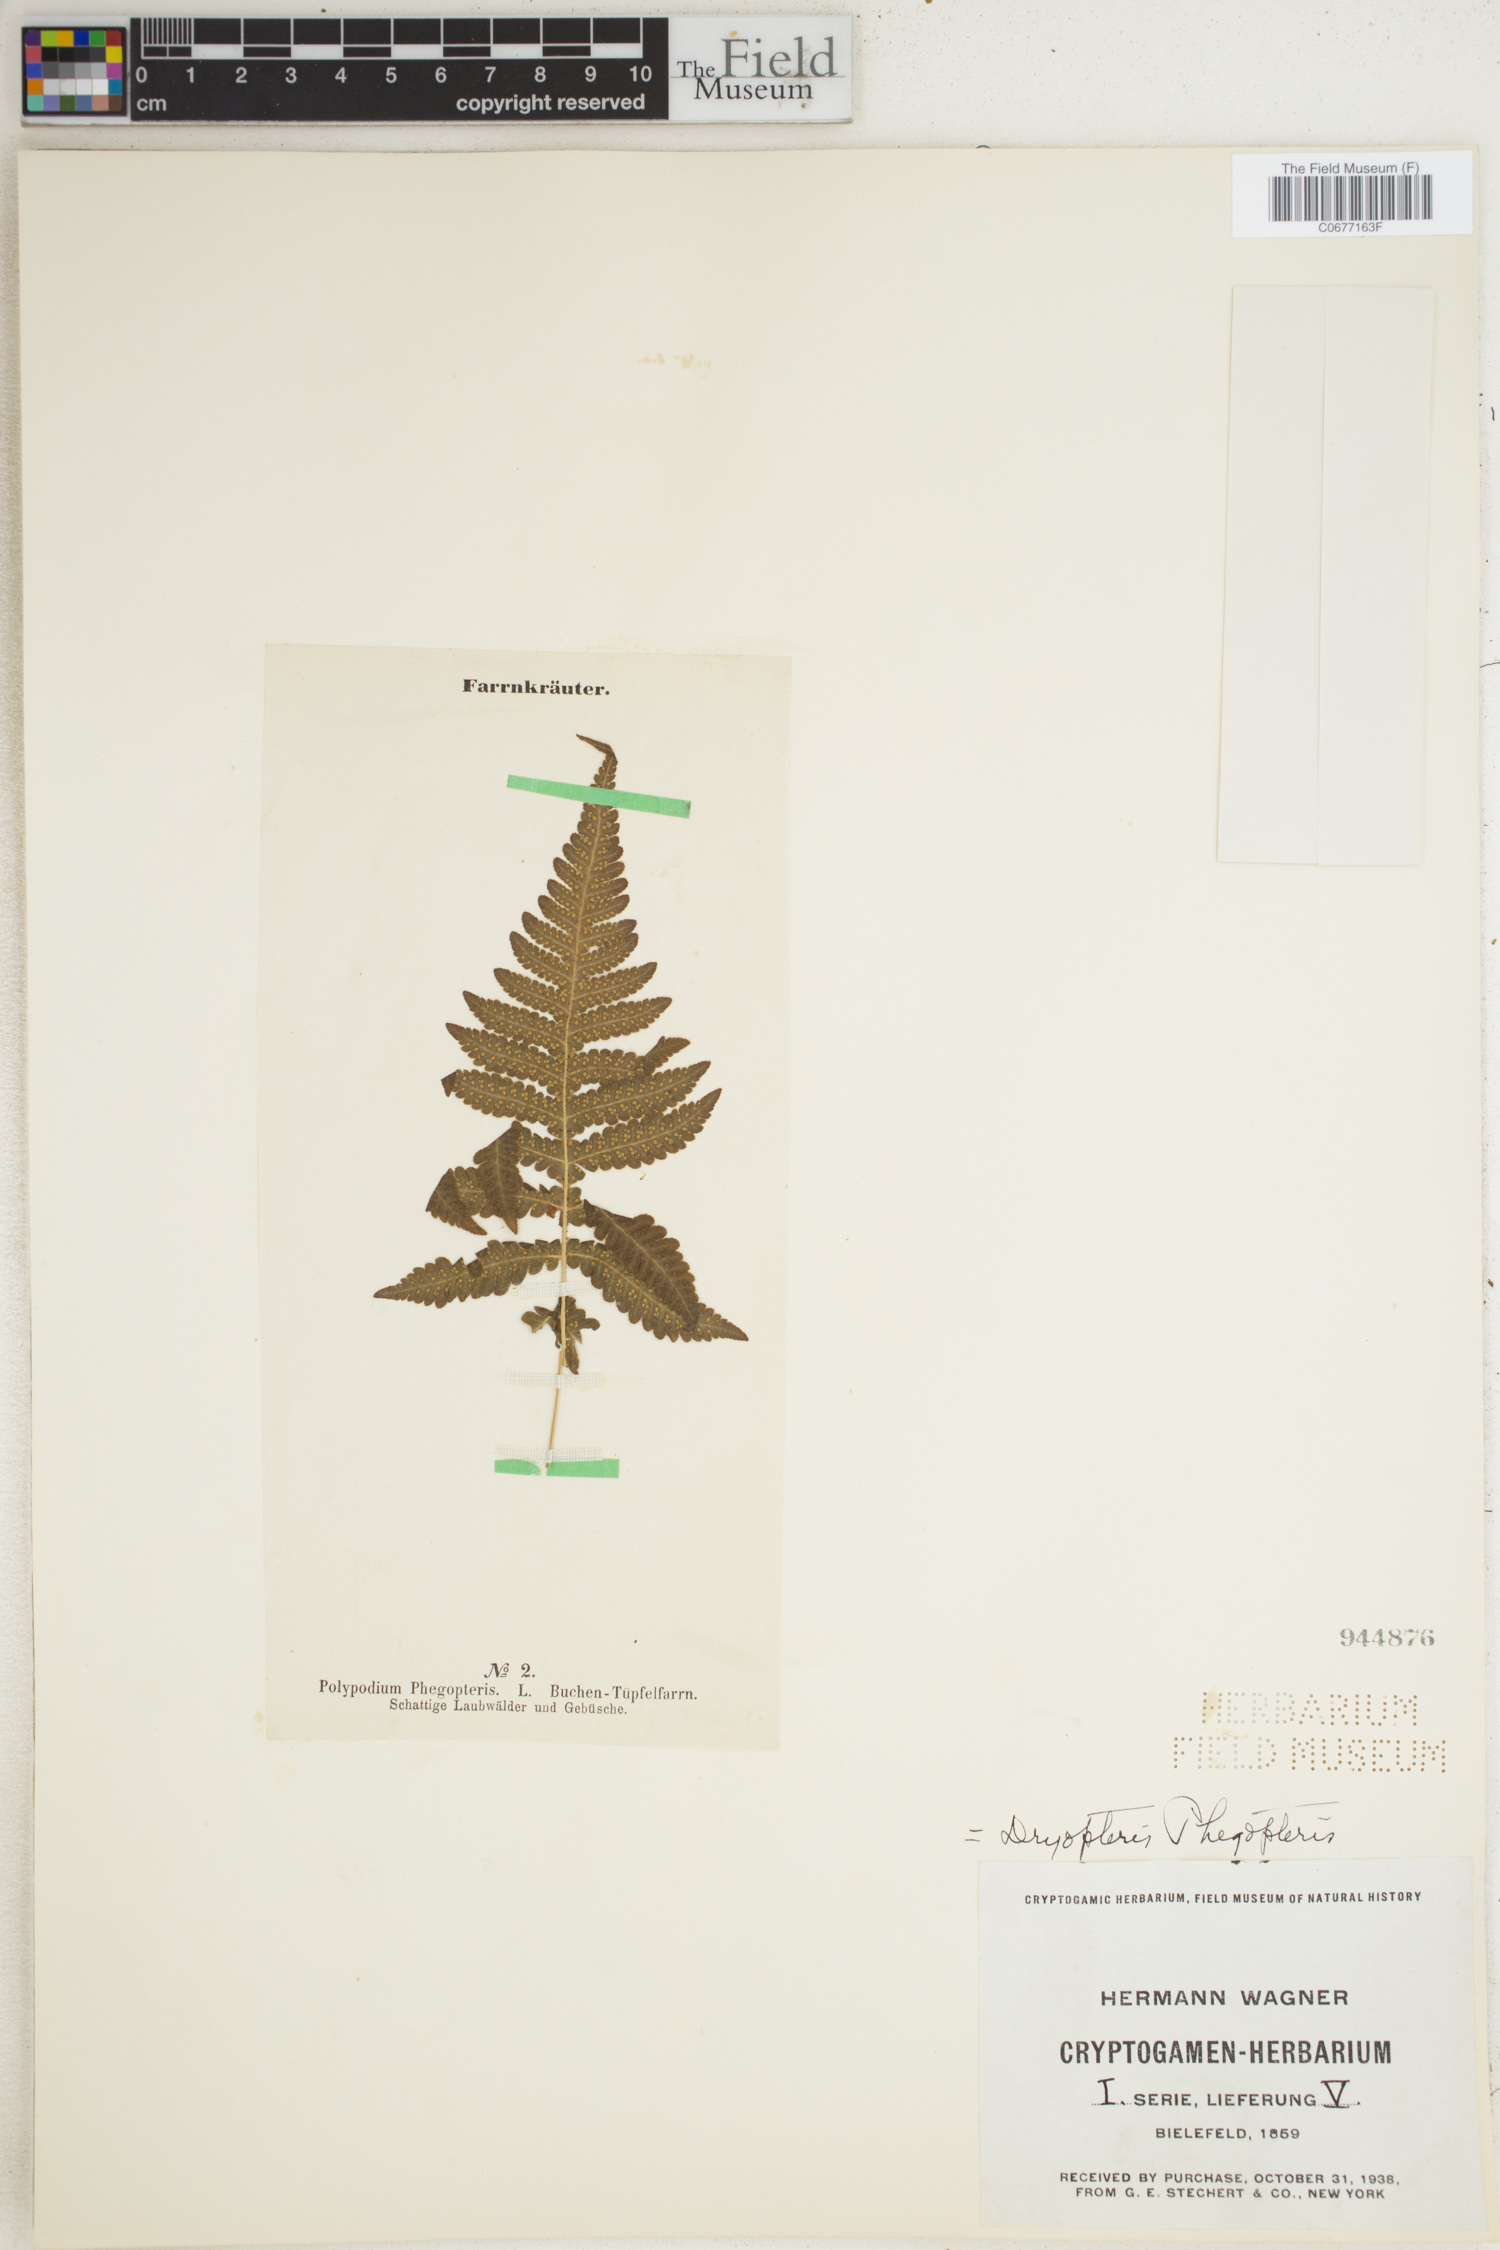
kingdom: Plantae
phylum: Tracheophyta
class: Polypodiopsida
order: Polypodiales
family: Thelypteridaceae
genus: Phegopteris
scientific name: Phegopteris connectilis
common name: Beech fern
